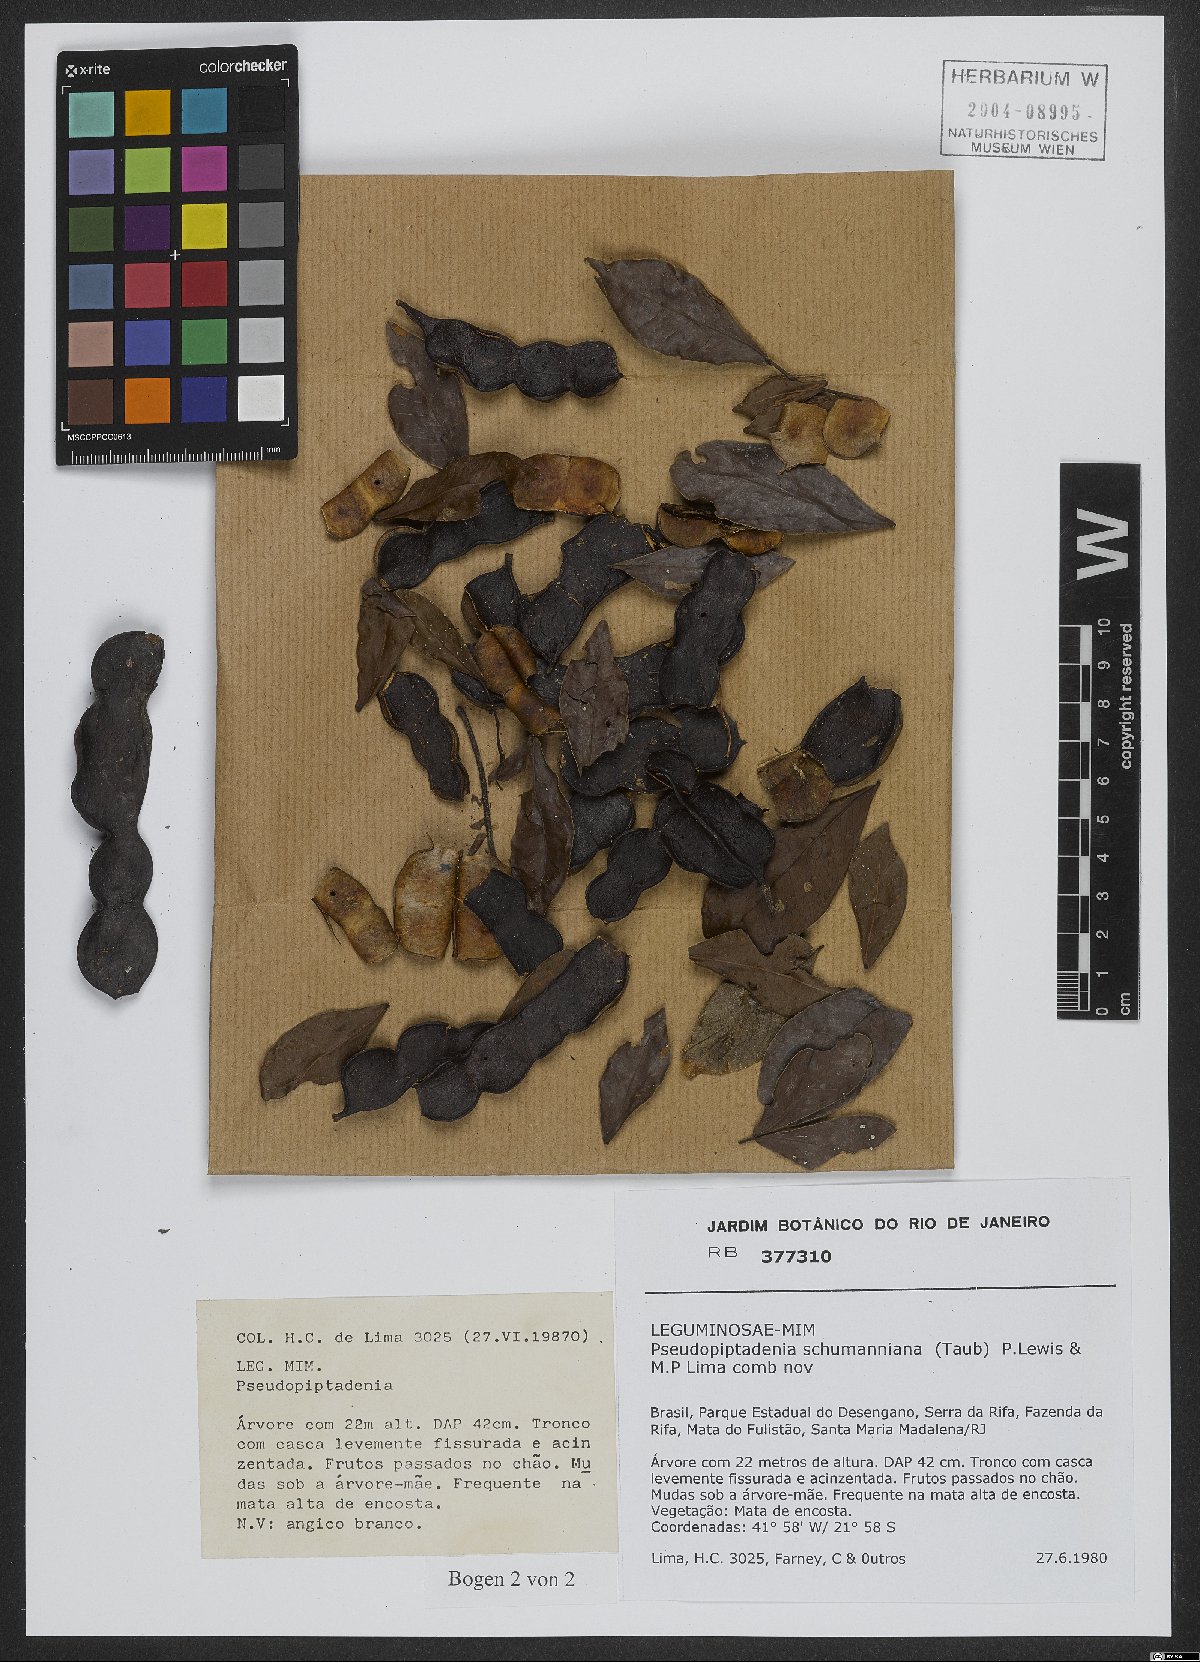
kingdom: Plantae
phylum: Tracheophyta
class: Magnoliopsida
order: Fabales
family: Fabaceae
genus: Pseudopiptadenia
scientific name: Pseudopiptadenia schumanniana
